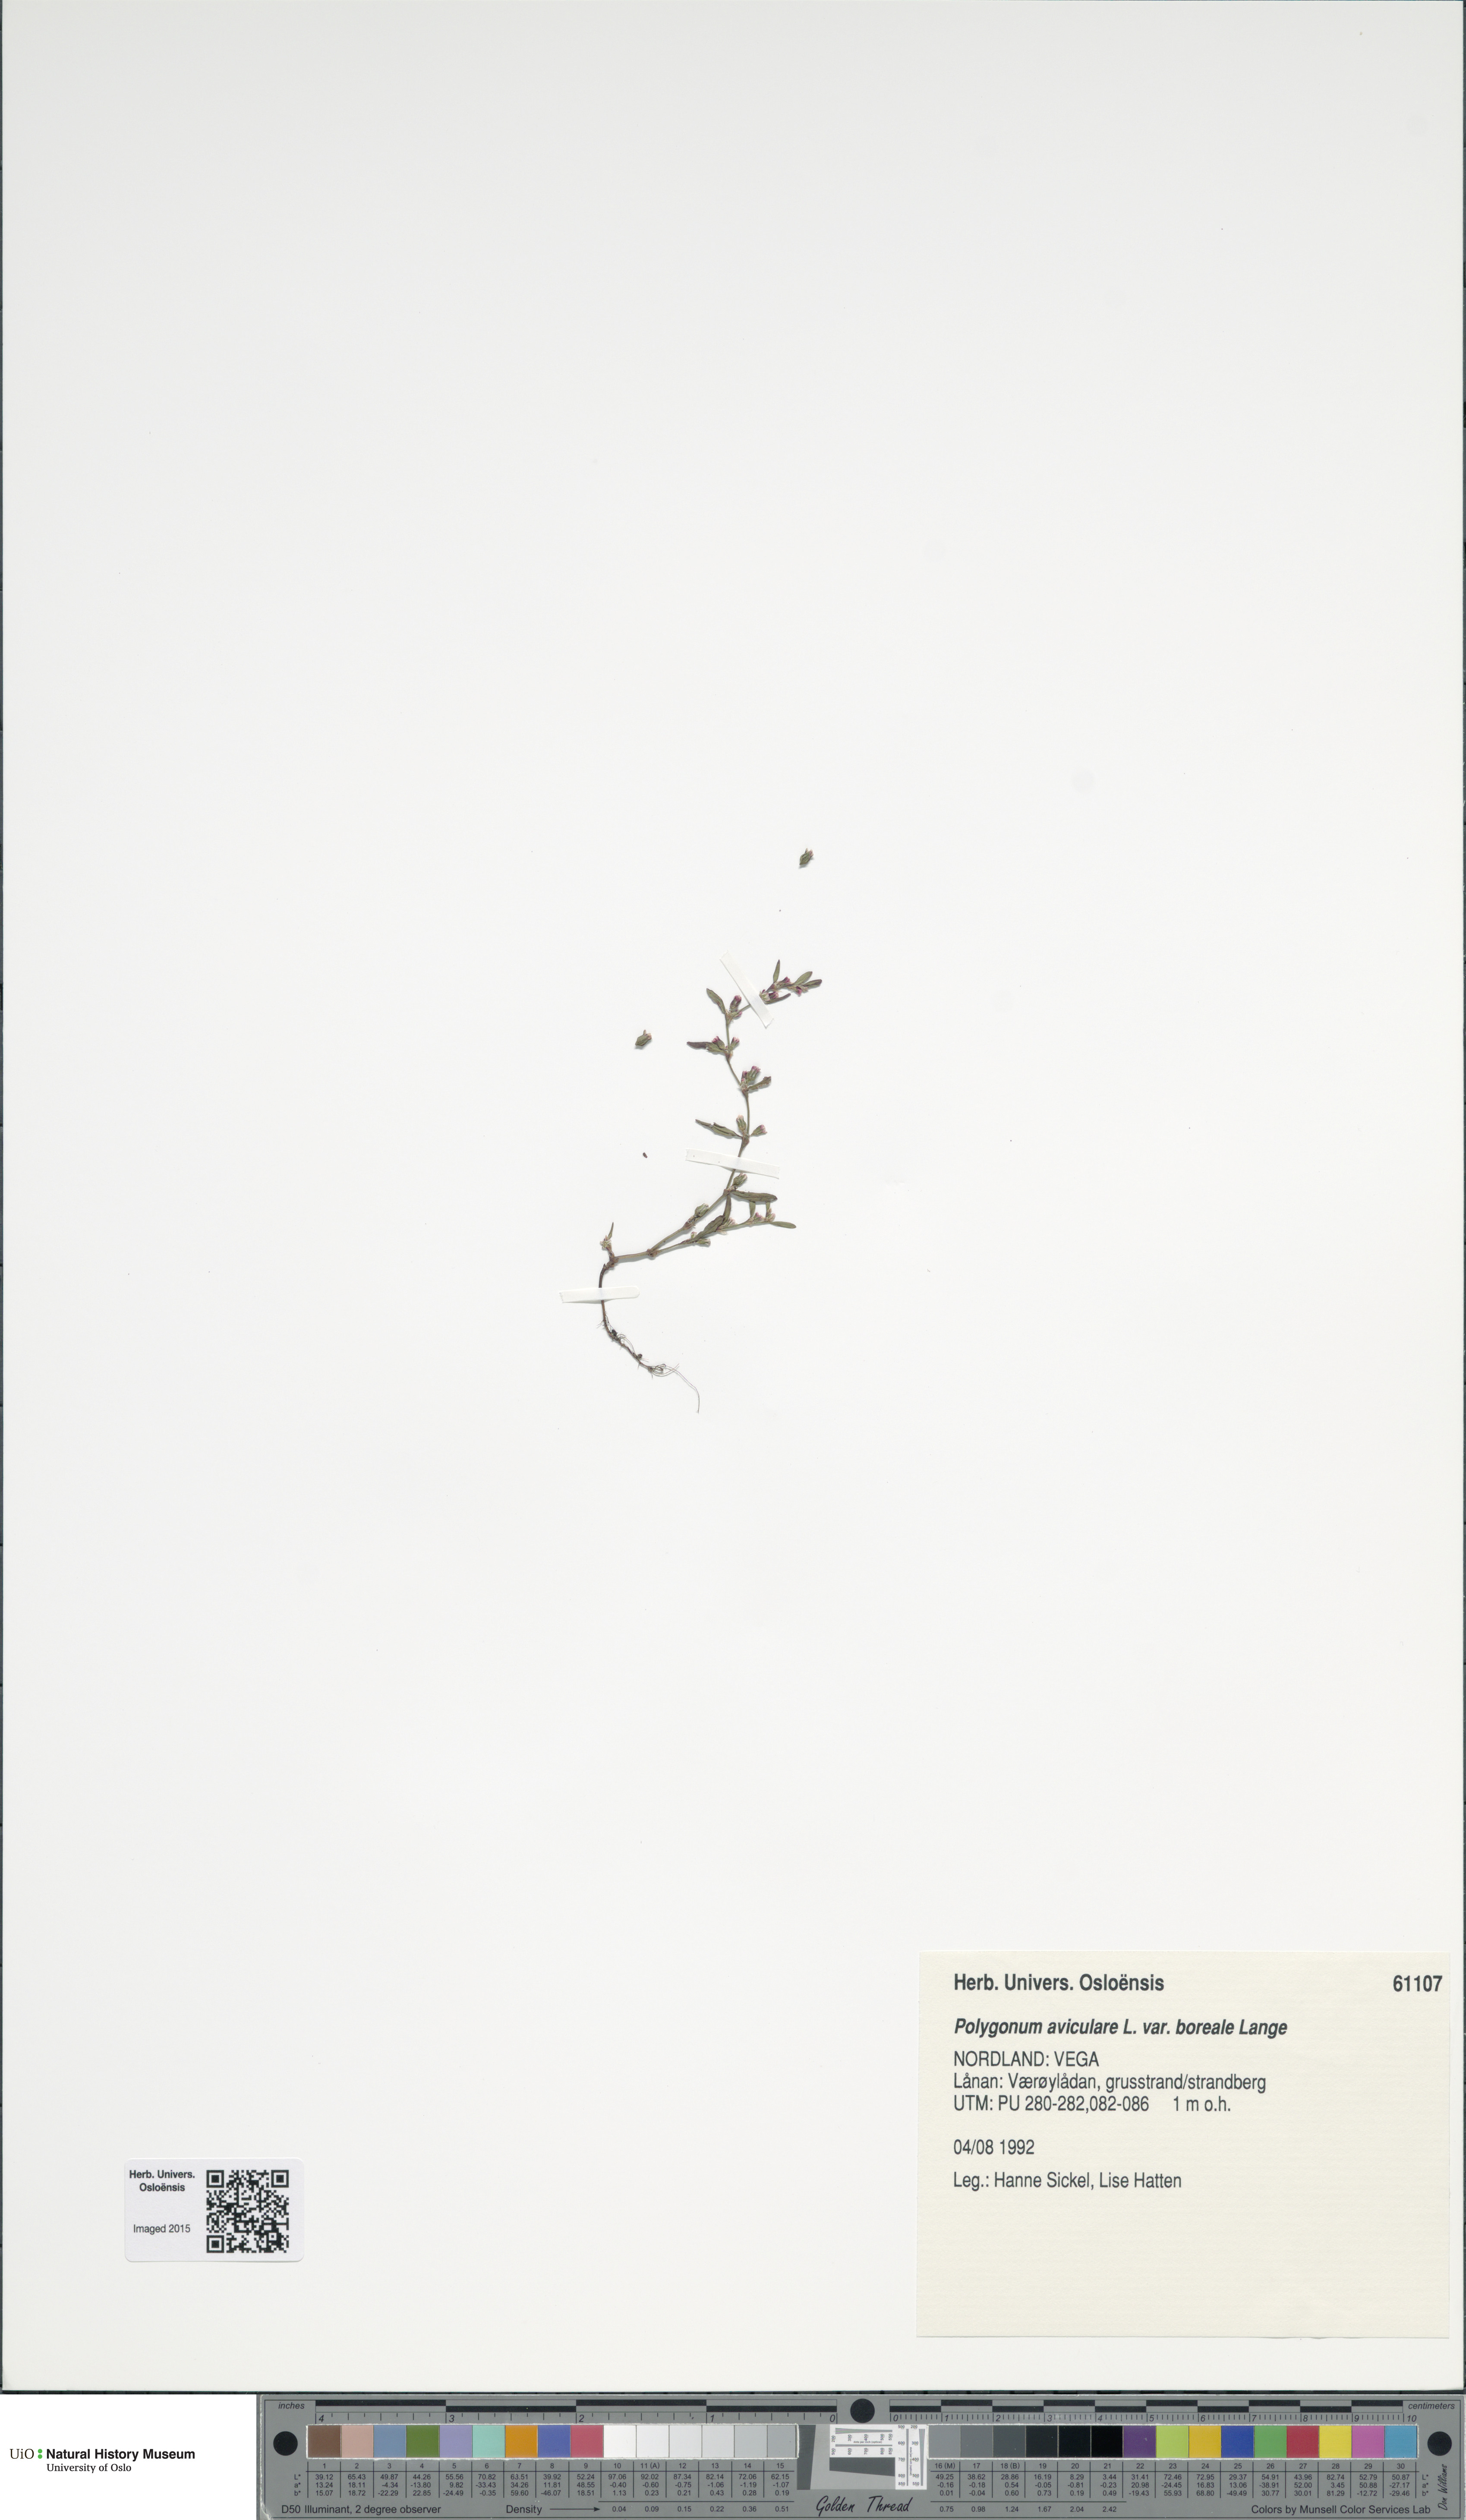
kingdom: Plantae
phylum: Tracheophyta
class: Magnoliopsida
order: Caryophyllales
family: Polygonaceae
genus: Polygonum
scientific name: Polygonum boreale
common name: Northern knotgrass
